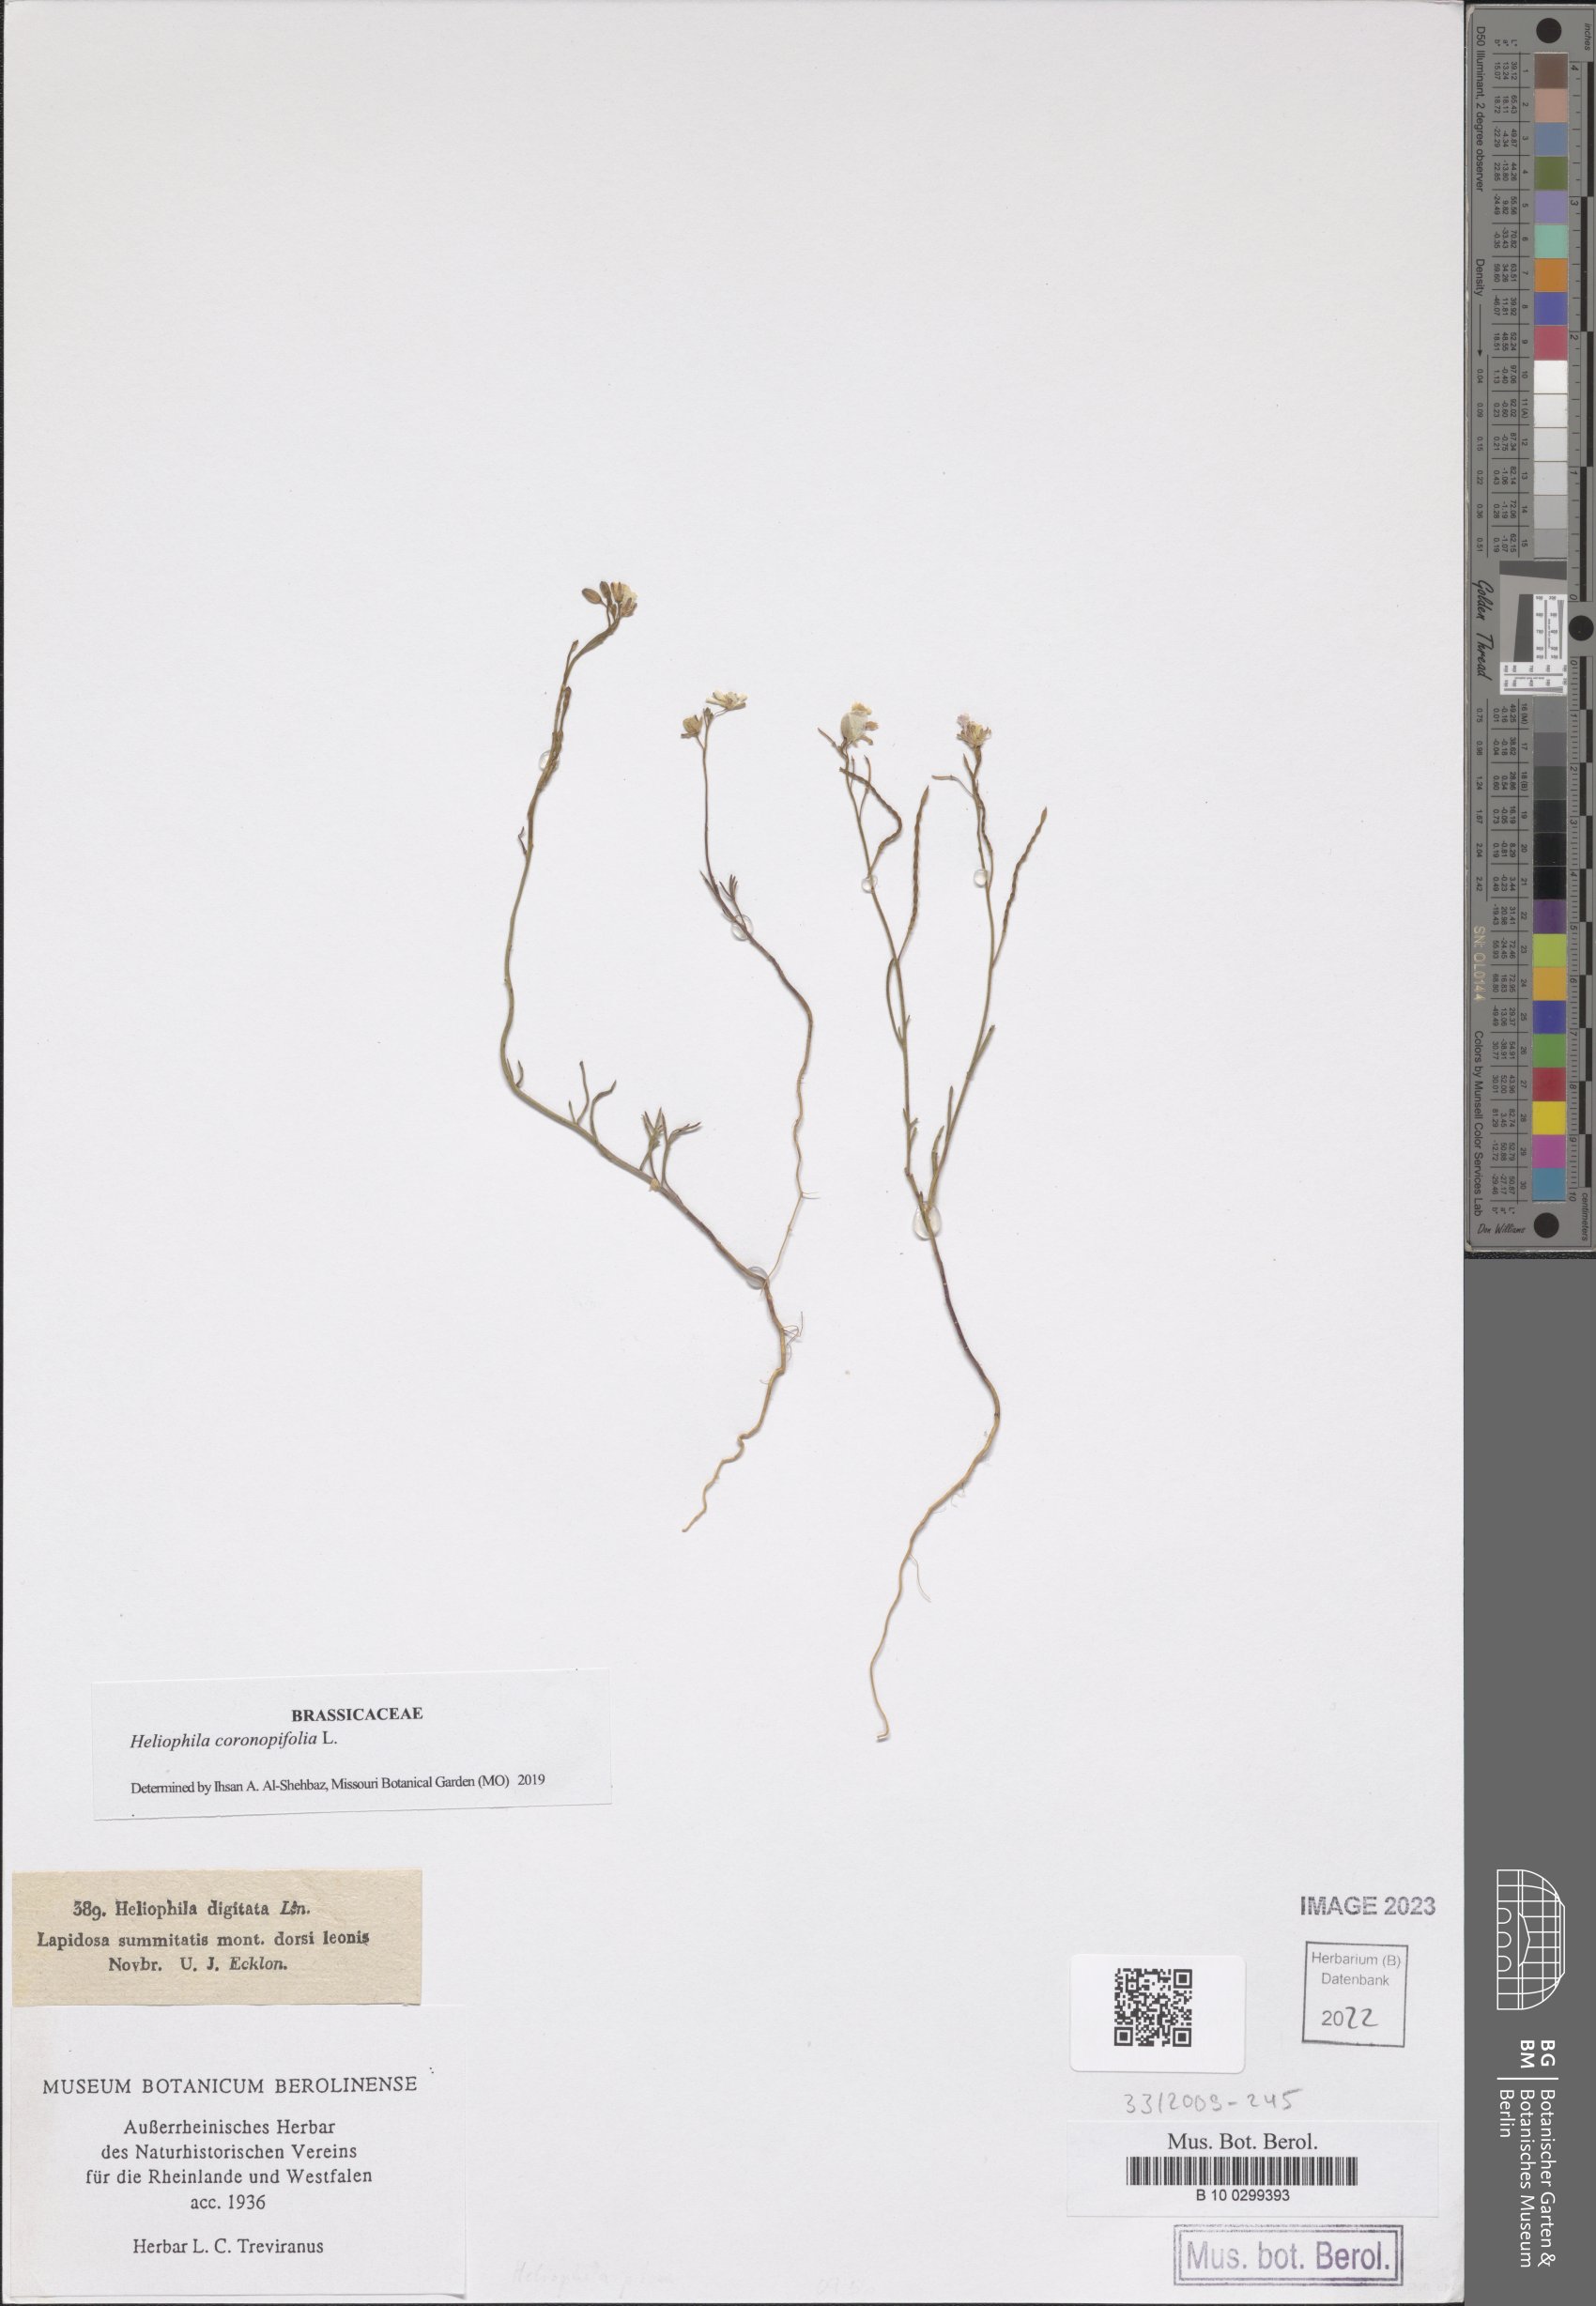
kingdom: Plantae
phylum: Tracheophyta
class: Magnoliopsida
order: Brassicales
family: Brassicaceae
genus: Heliophila
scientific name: Heliophila coronopifolia
